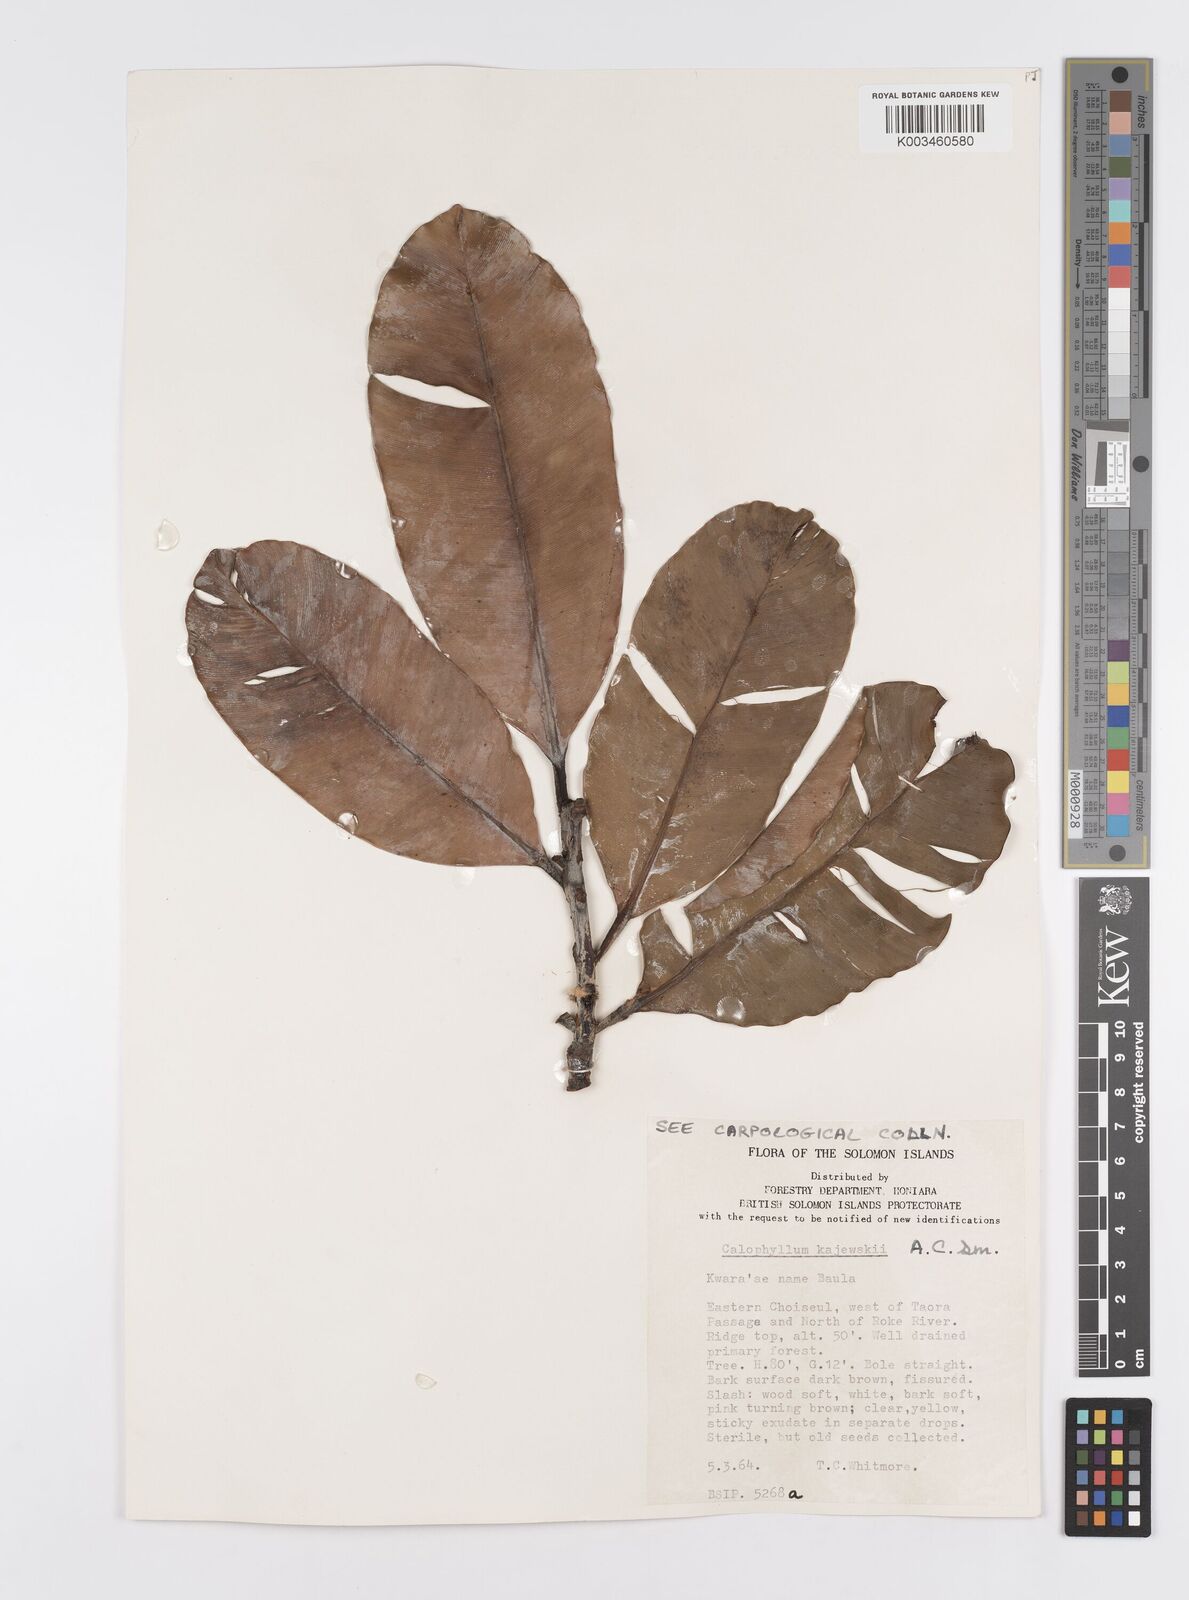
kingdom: Plantae
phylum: Tracheophyta
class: Magnoliopsida
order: Malpighiales
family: Calophyllaceae
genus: Calophyllum
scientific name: Calophyllum peekelii
